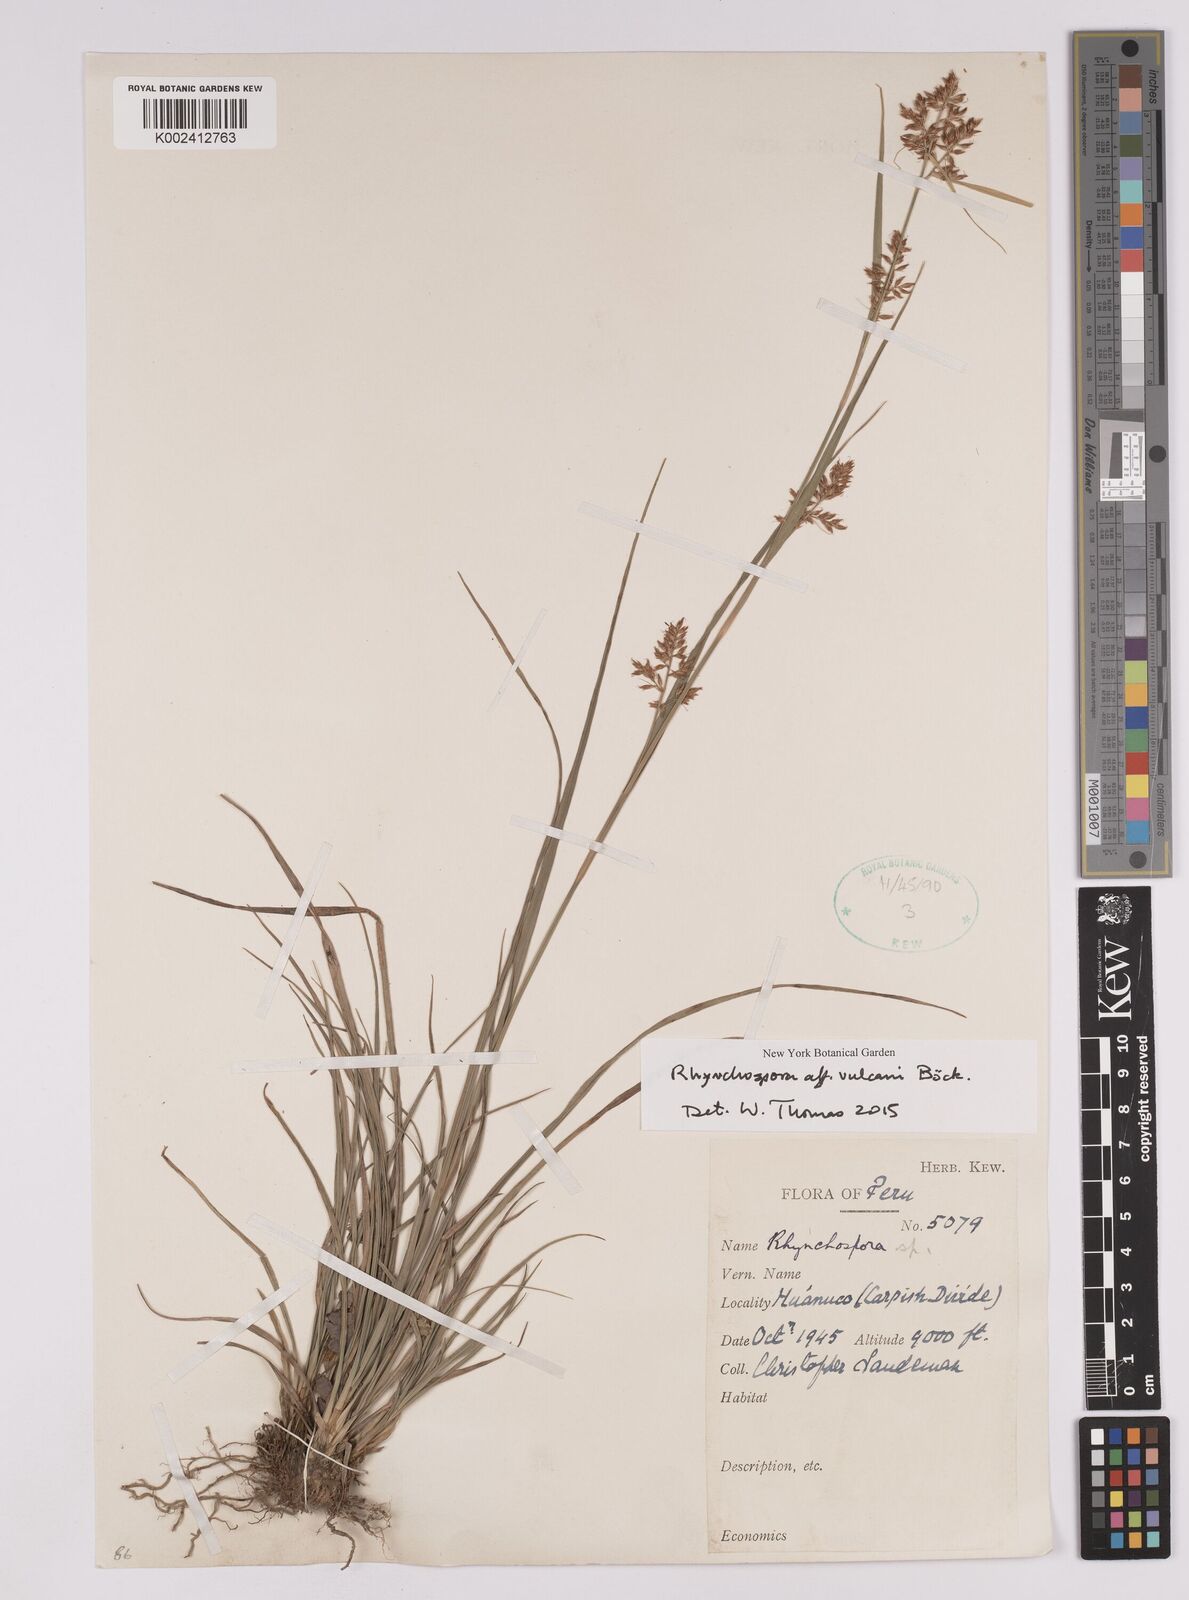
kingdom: Plantae
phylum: Tracheophyta
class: Liliopsida
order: Poales
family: Cyperaceae
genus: Rhynchospora
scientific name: Rhynchospora
